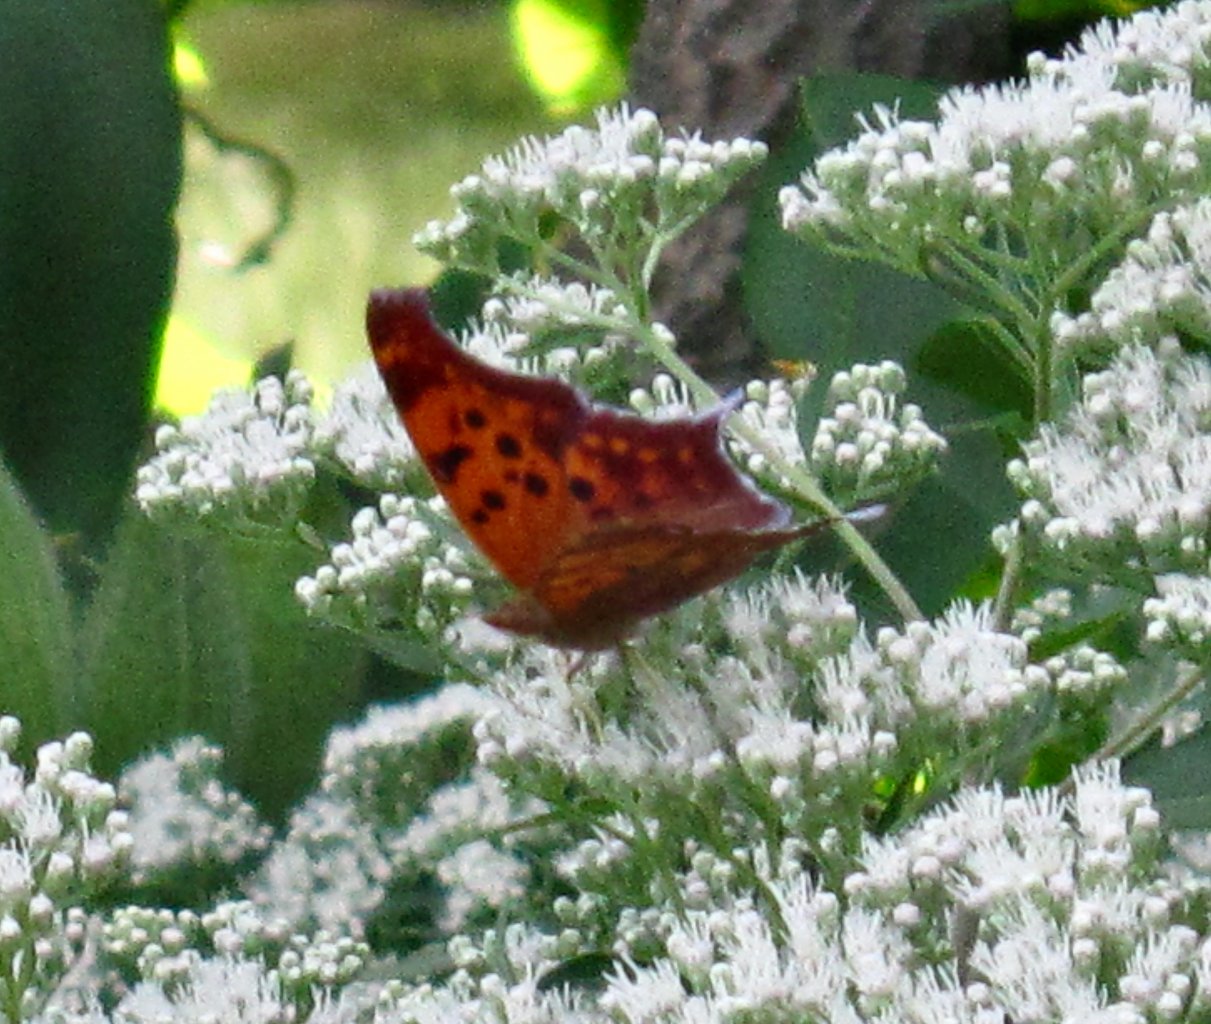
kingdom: Animalia
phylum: Arthropoda
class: Insecta
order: Lepidoptera
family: Nymphalidae
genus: Polygonia
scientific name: Polygonia interrogationis
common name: Question Mark
